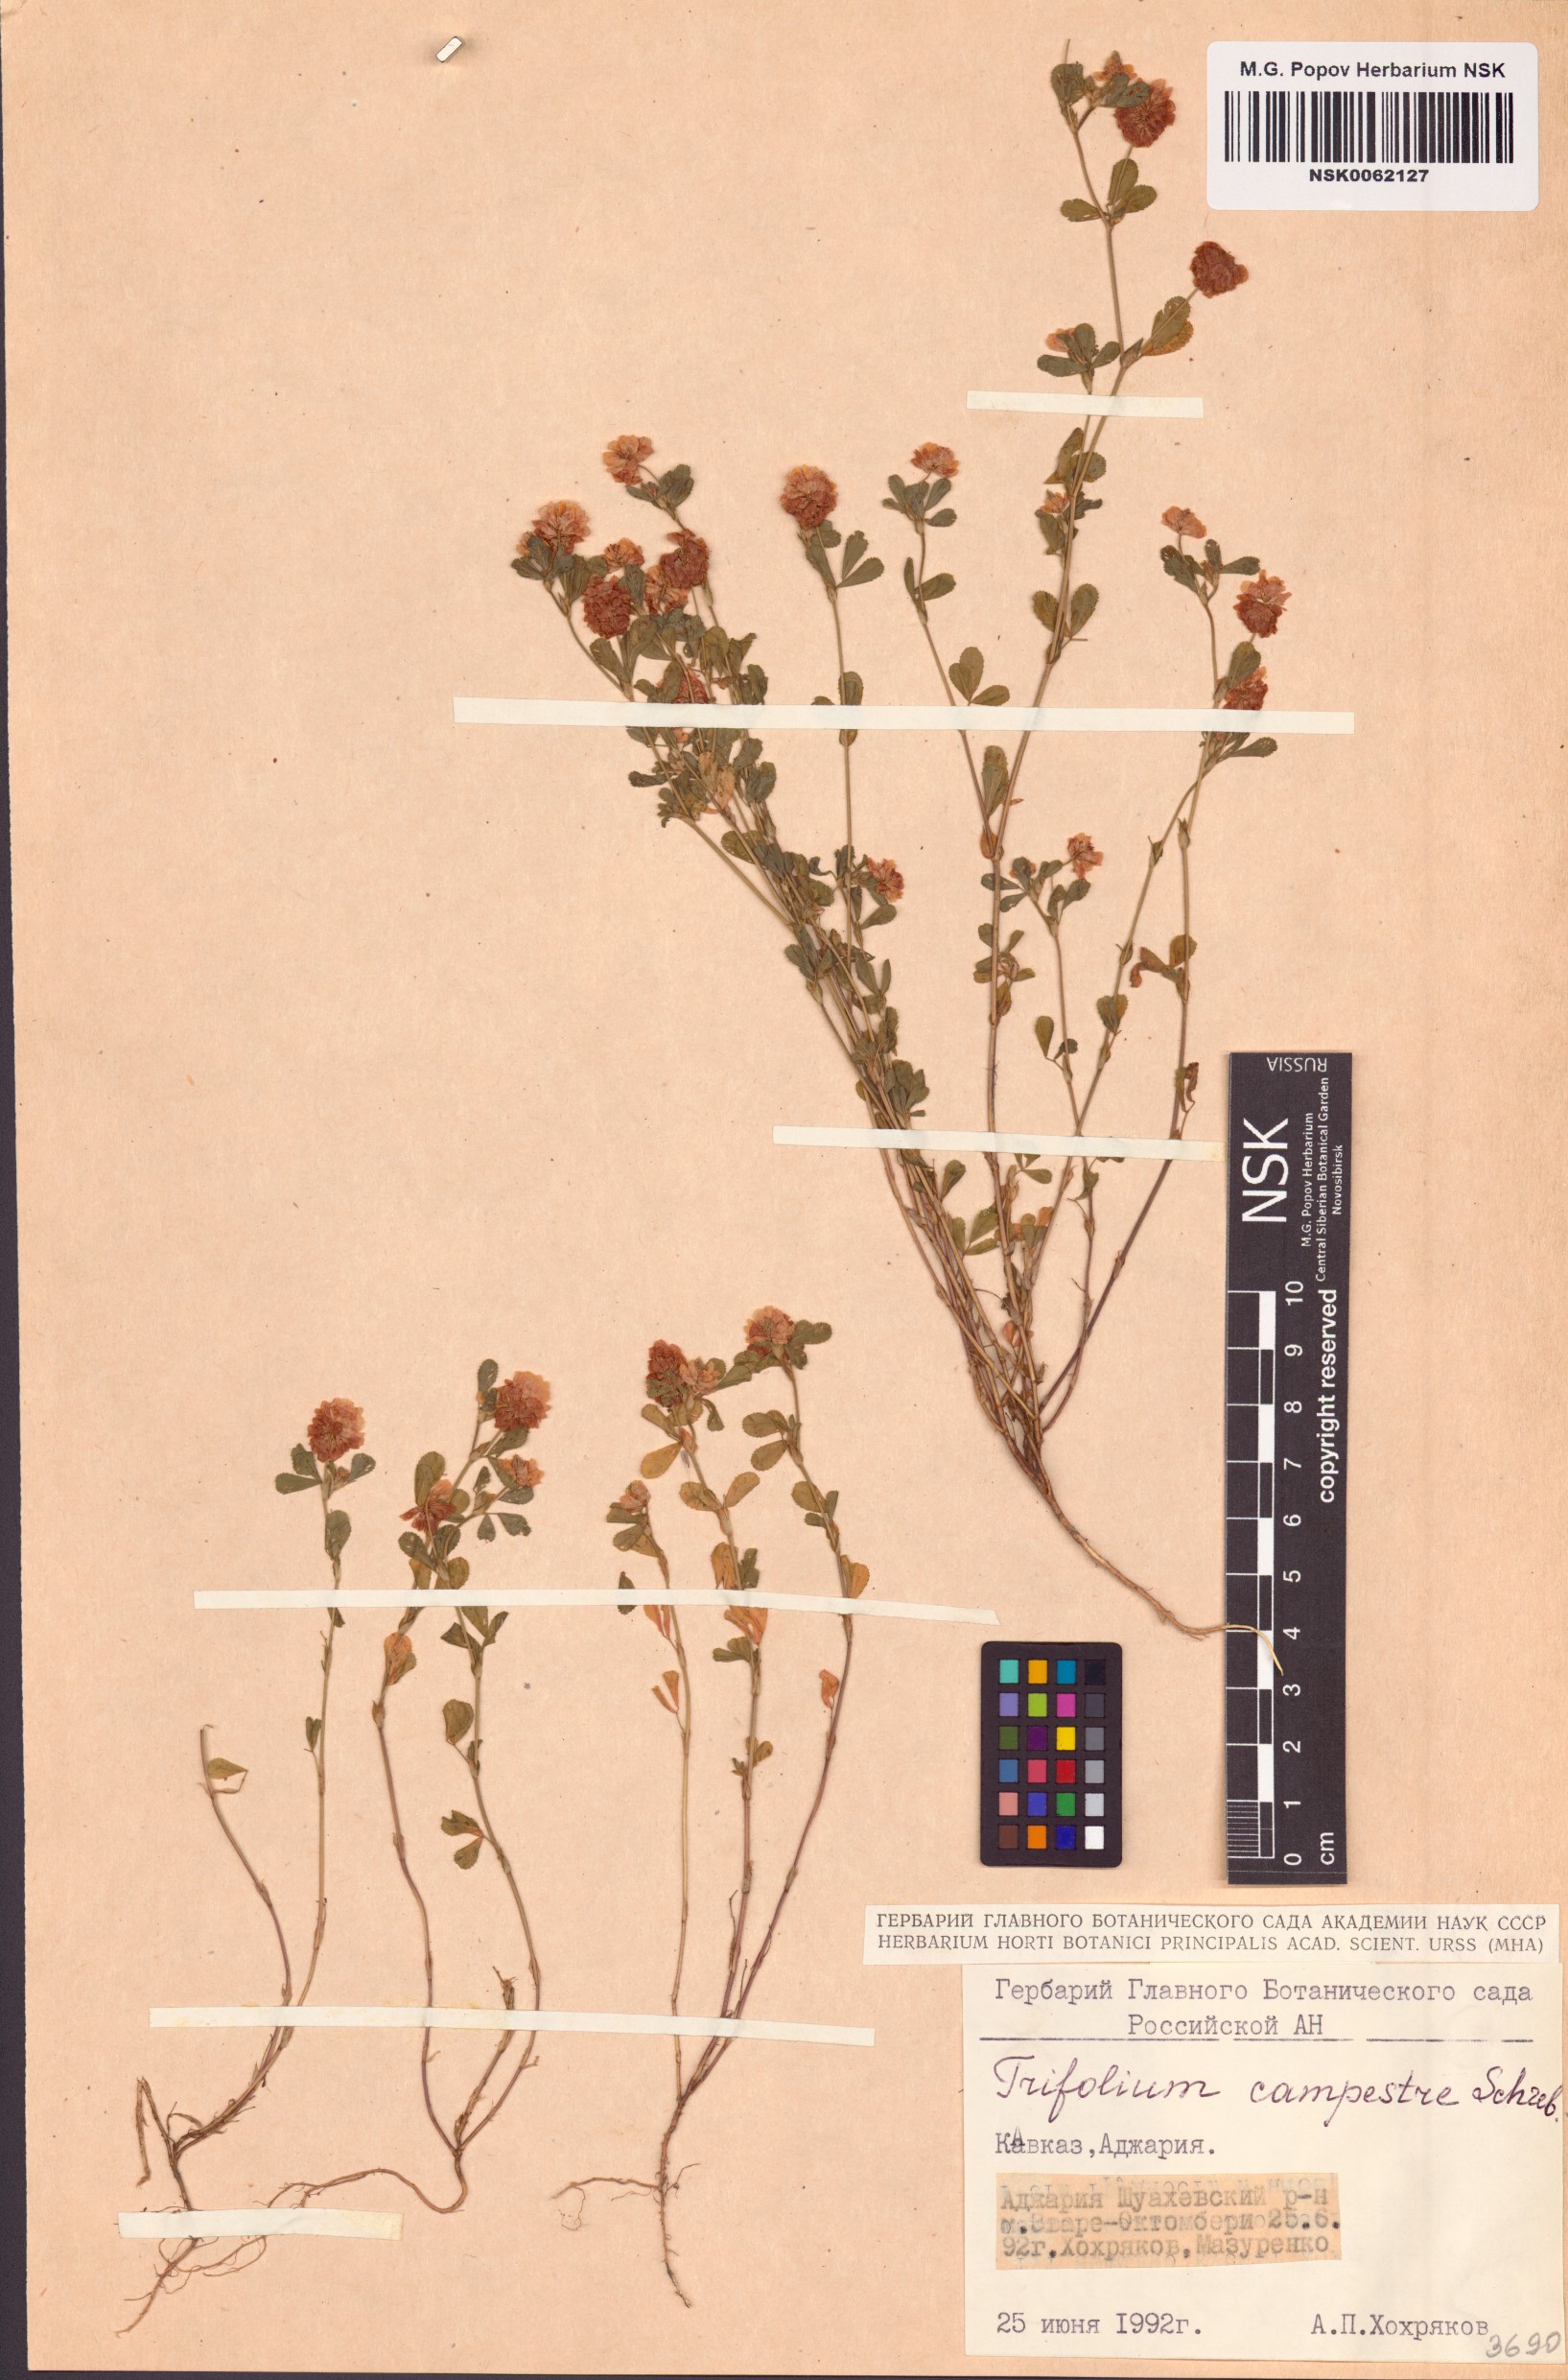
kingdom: Plantae
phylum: Tracheophyta
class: Magnoliopsida
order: Fabales
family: Fabaceae
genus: Trifolium
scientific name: Trifolium campestre
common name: Field clover
